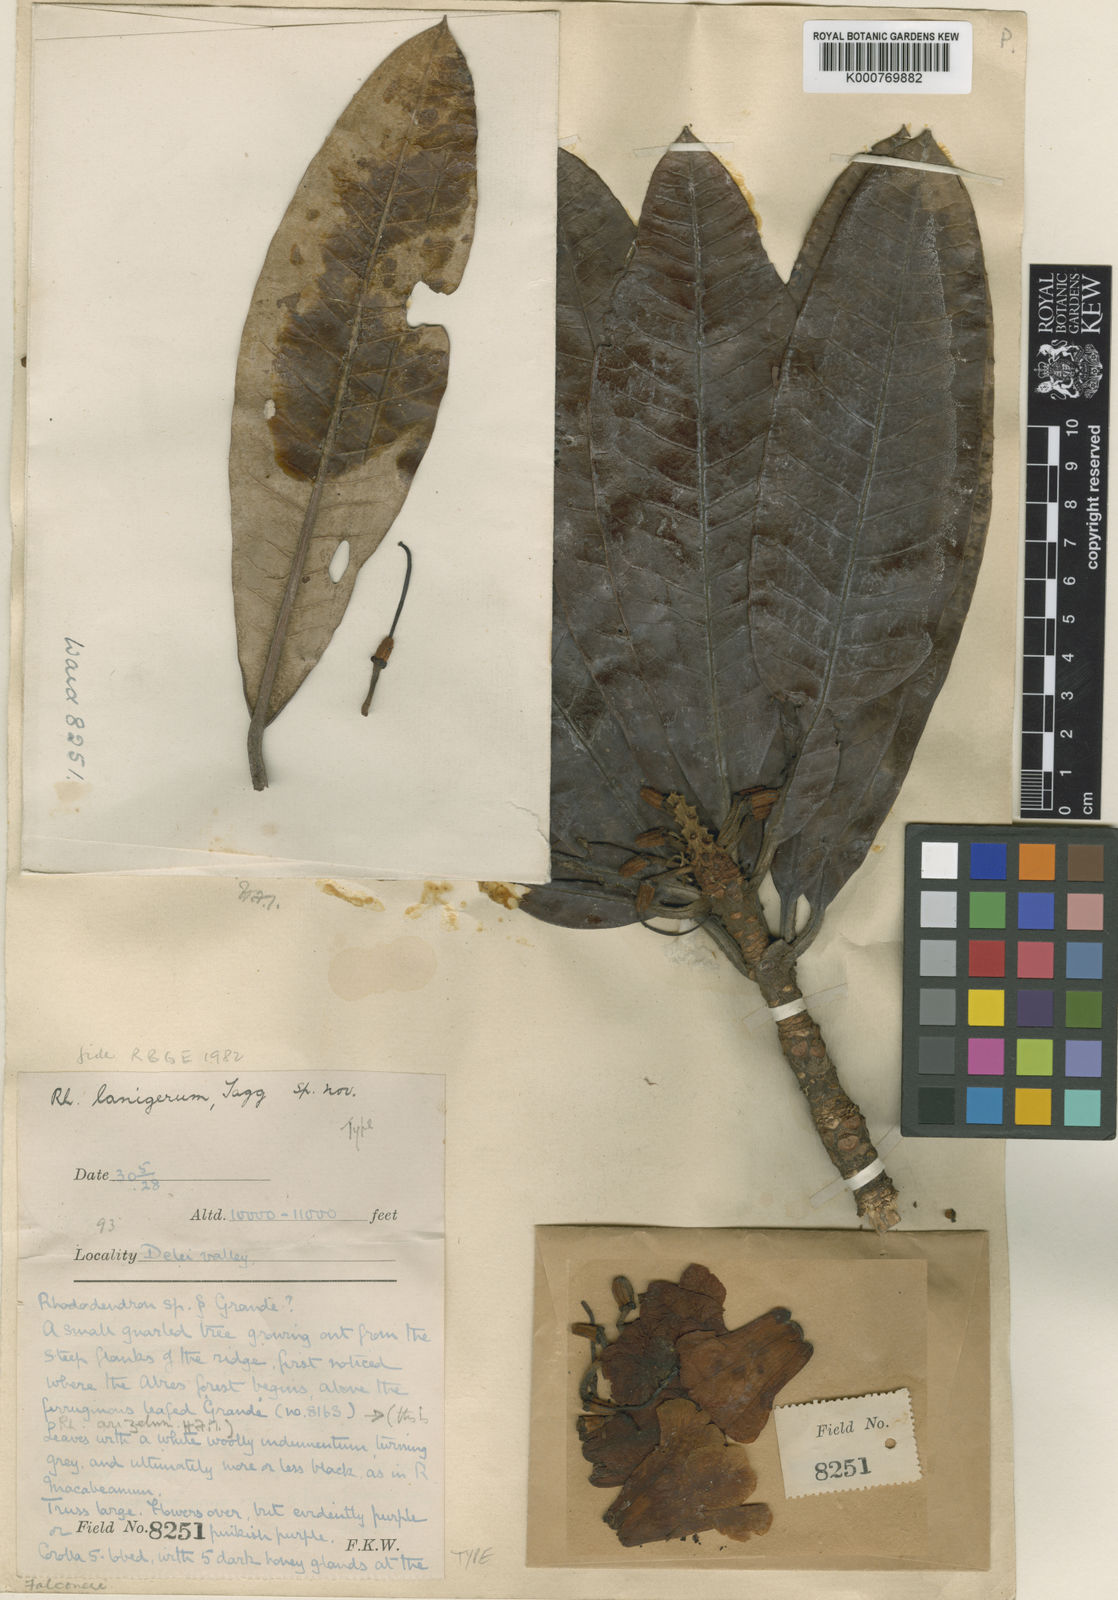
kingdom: Plantae
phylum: Tracheophyta
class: Magnoliopsida
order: Ericales
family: Ericaceae
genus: Rhododendron
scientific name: Rhododendron
